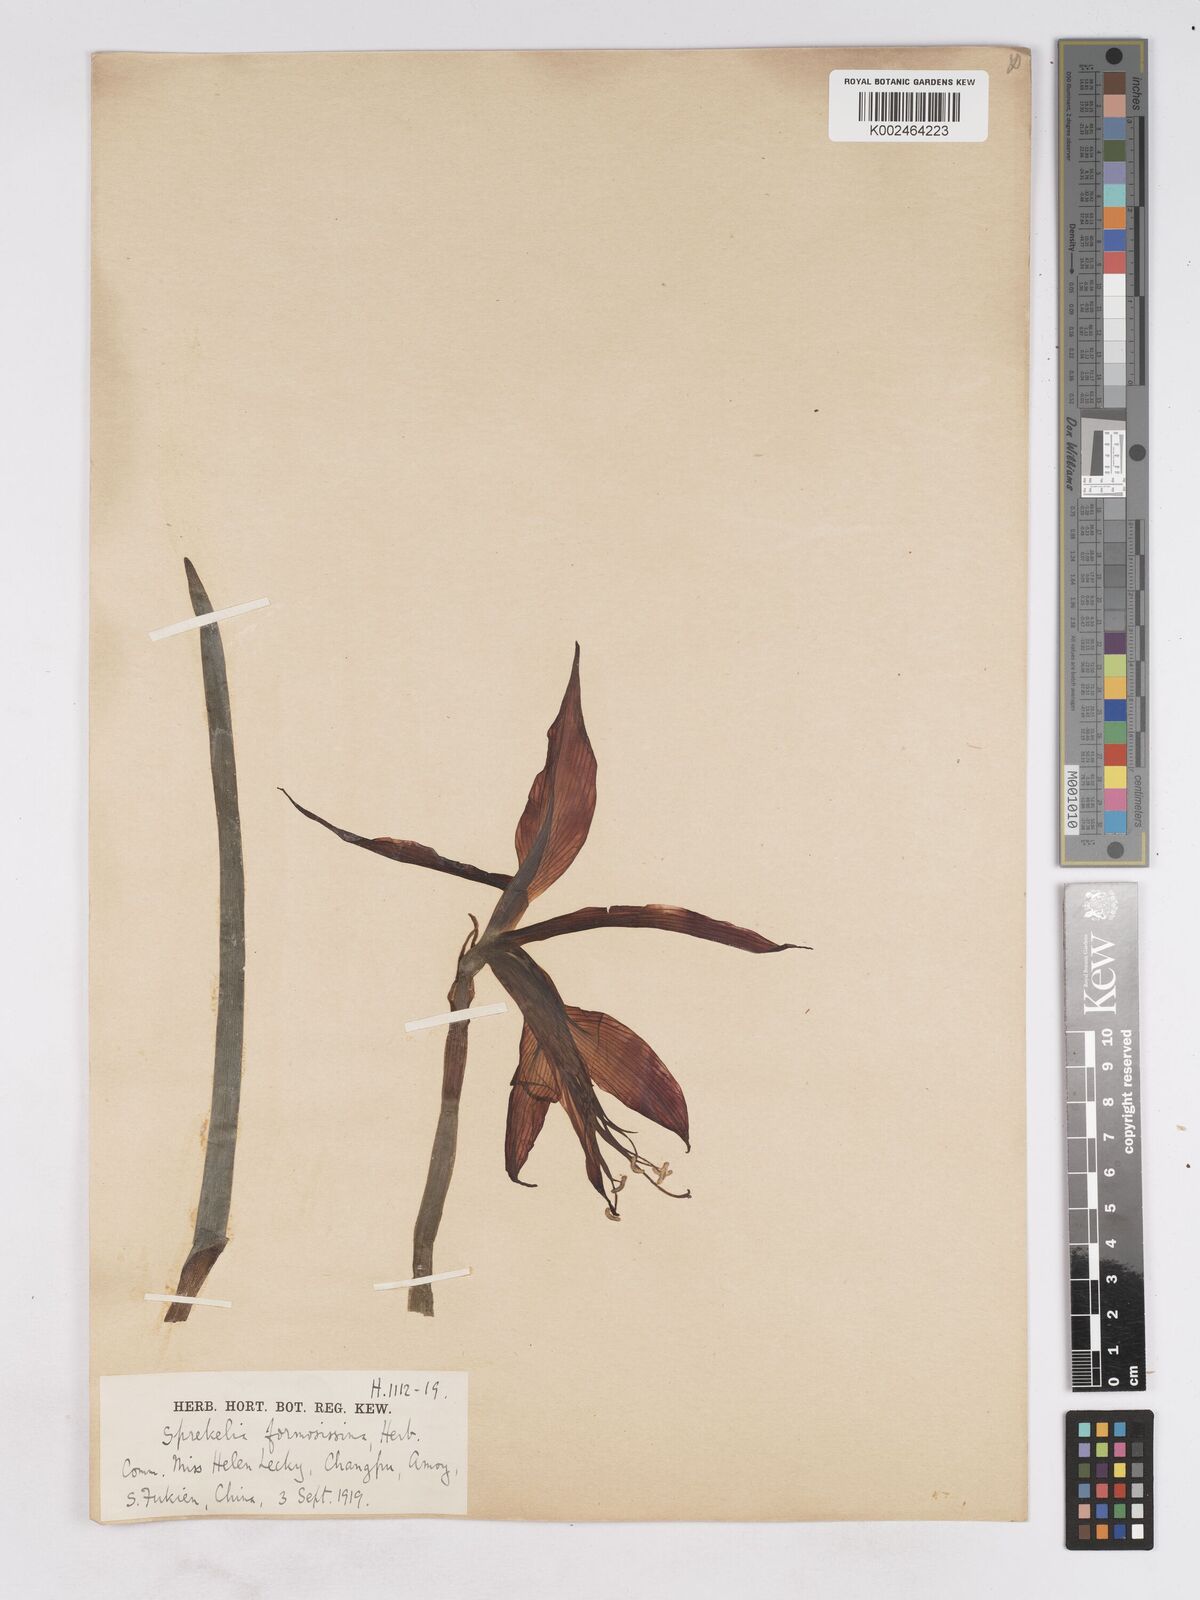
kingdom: Plantae
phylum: Tracheophyta
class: Liliopsida
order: Asparagales
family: Amaryllidaceae
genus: Sprekelia
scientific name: Sprekelia formosissima
